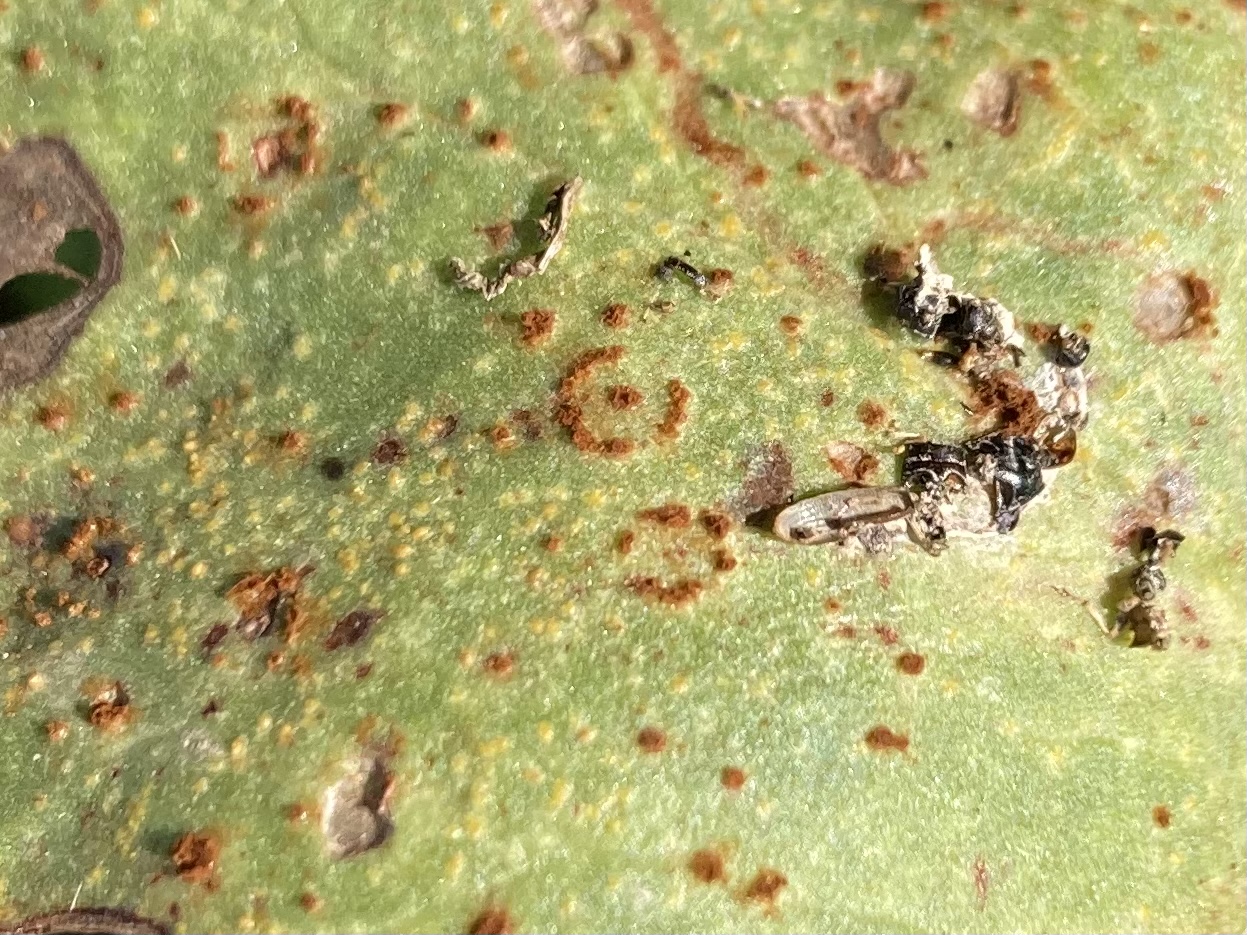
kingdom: Fungi
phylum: Basidiomycota
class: Pucciniomycetes
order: Pucciniales
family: Pucciniaceae
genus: Uromyces
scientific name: Uromyces viciae-fabae
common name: Broad bean rust
